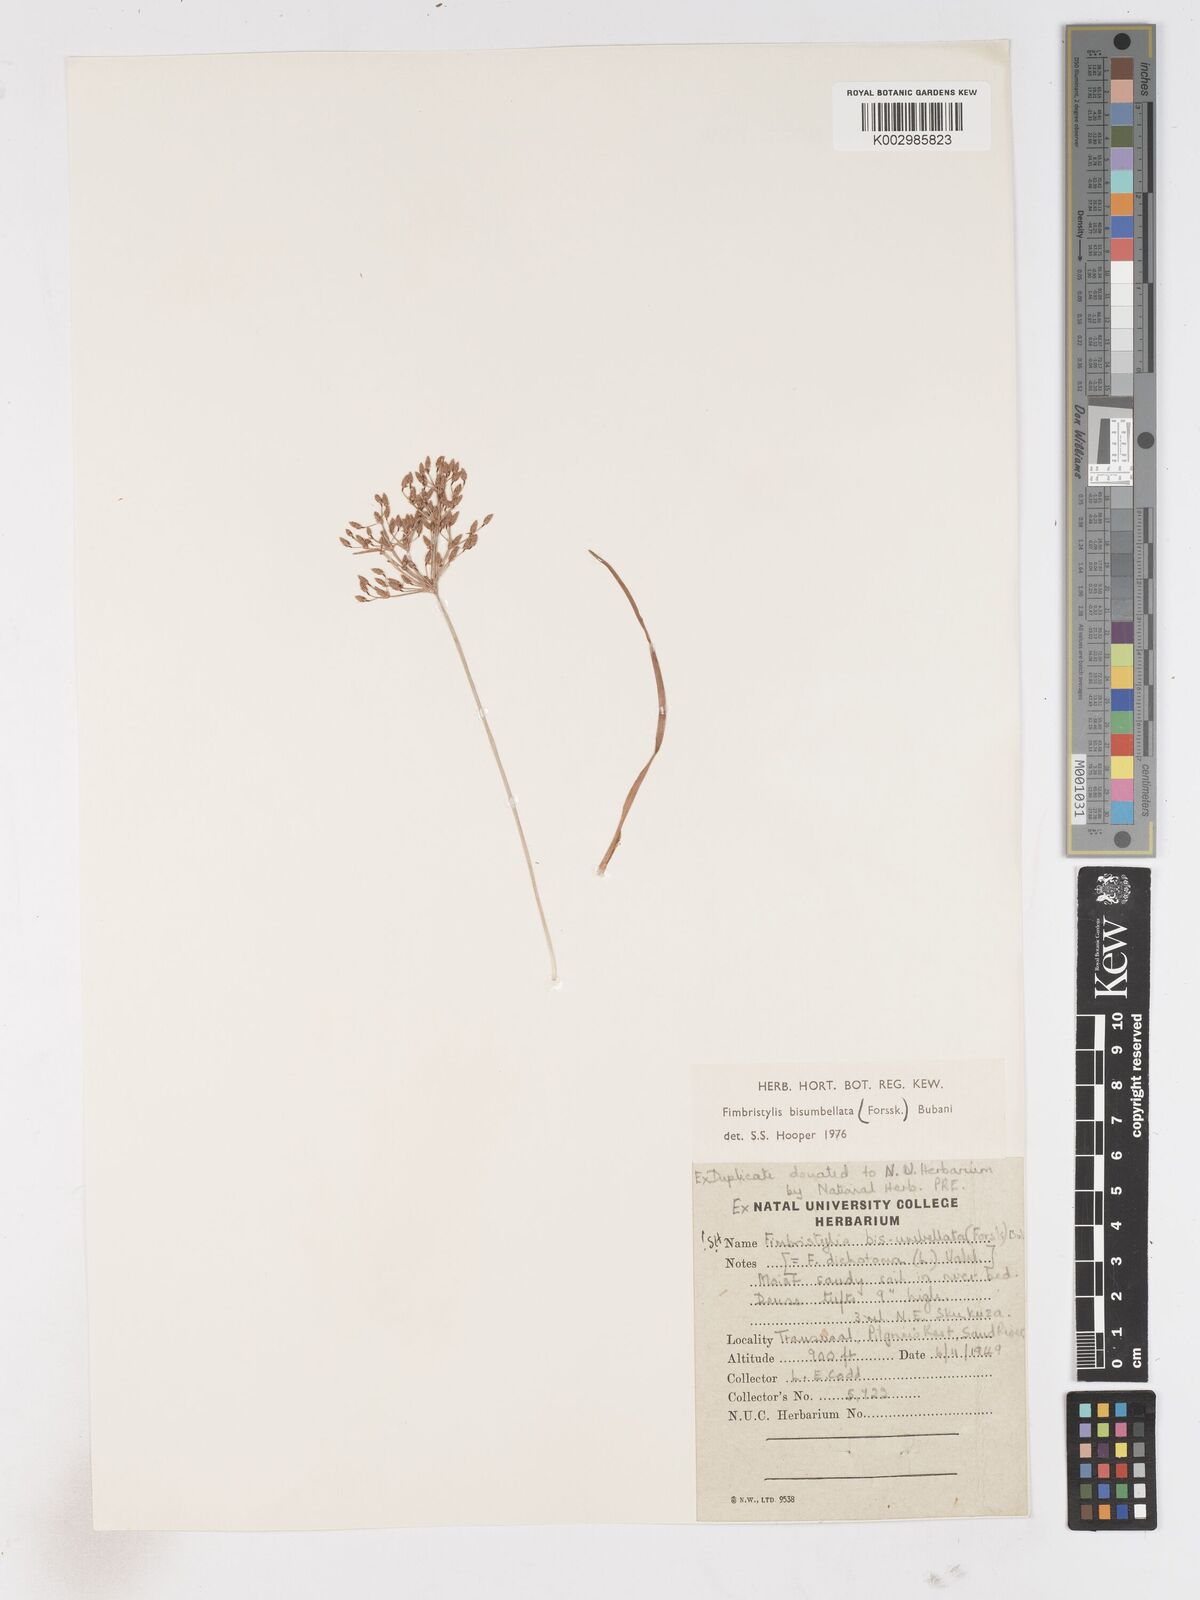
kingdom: Plantae
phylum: Tracheophyta
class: Liliopsida
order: Poales
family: Cyperaceae
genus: Fimbristylis
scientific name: Fimbristylis bisumbellata
